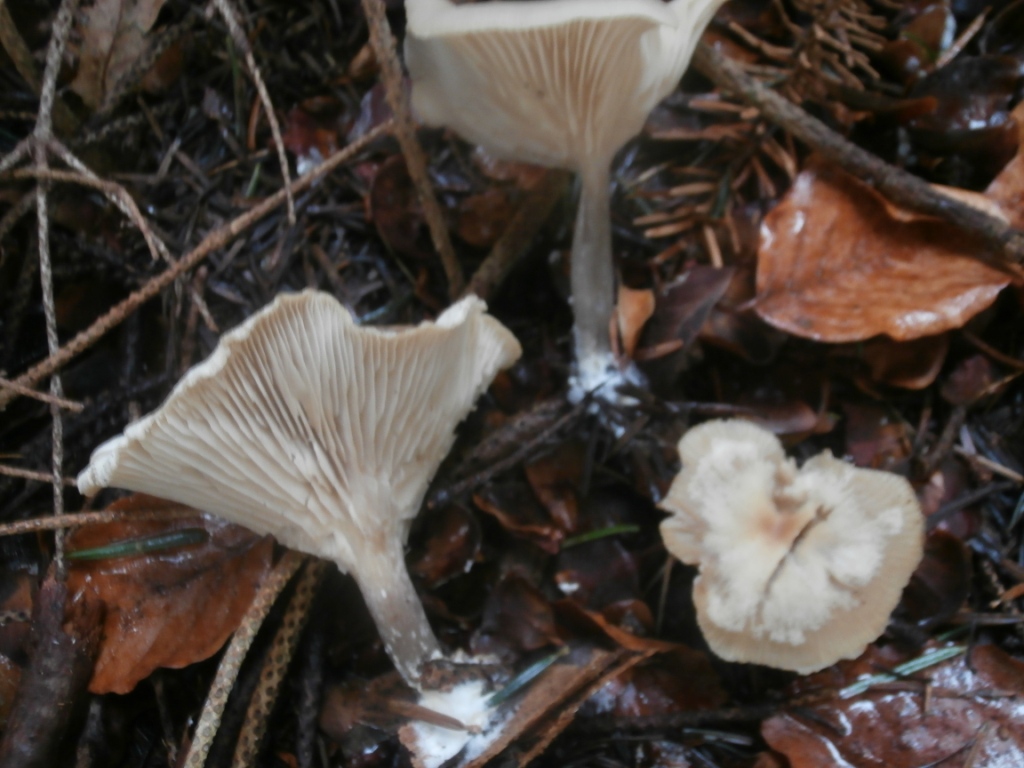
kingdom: Fungi
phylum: Basidiomycota
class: Agaricomycetes
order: Agaricales
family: Tricholomataceae
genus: Clitocybe
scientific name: Clitocybe metachroa
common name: grå tragthat
